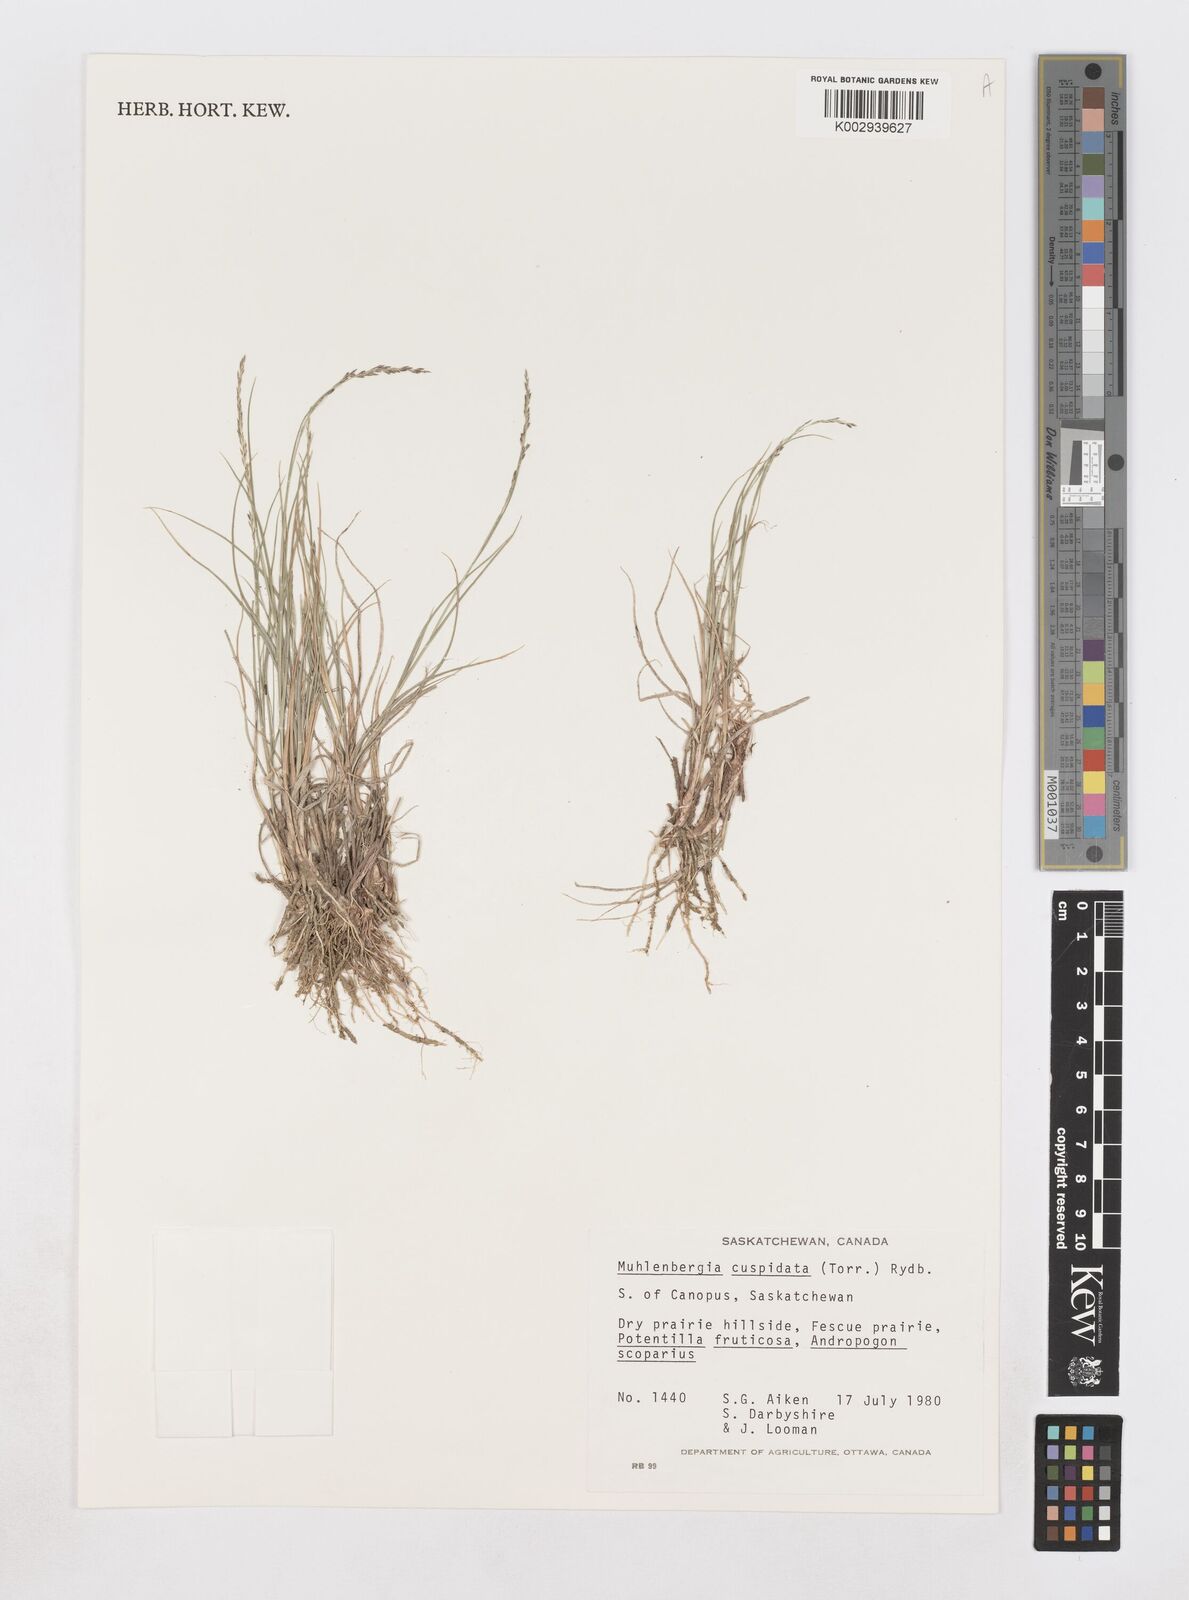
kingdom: Plantae
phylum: Tracheophyta
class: Liliopsida
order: Poales
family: Poaceae
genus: Muhlenbergia
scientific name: Muhlenbergia cuspidata
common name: Plains muhly
